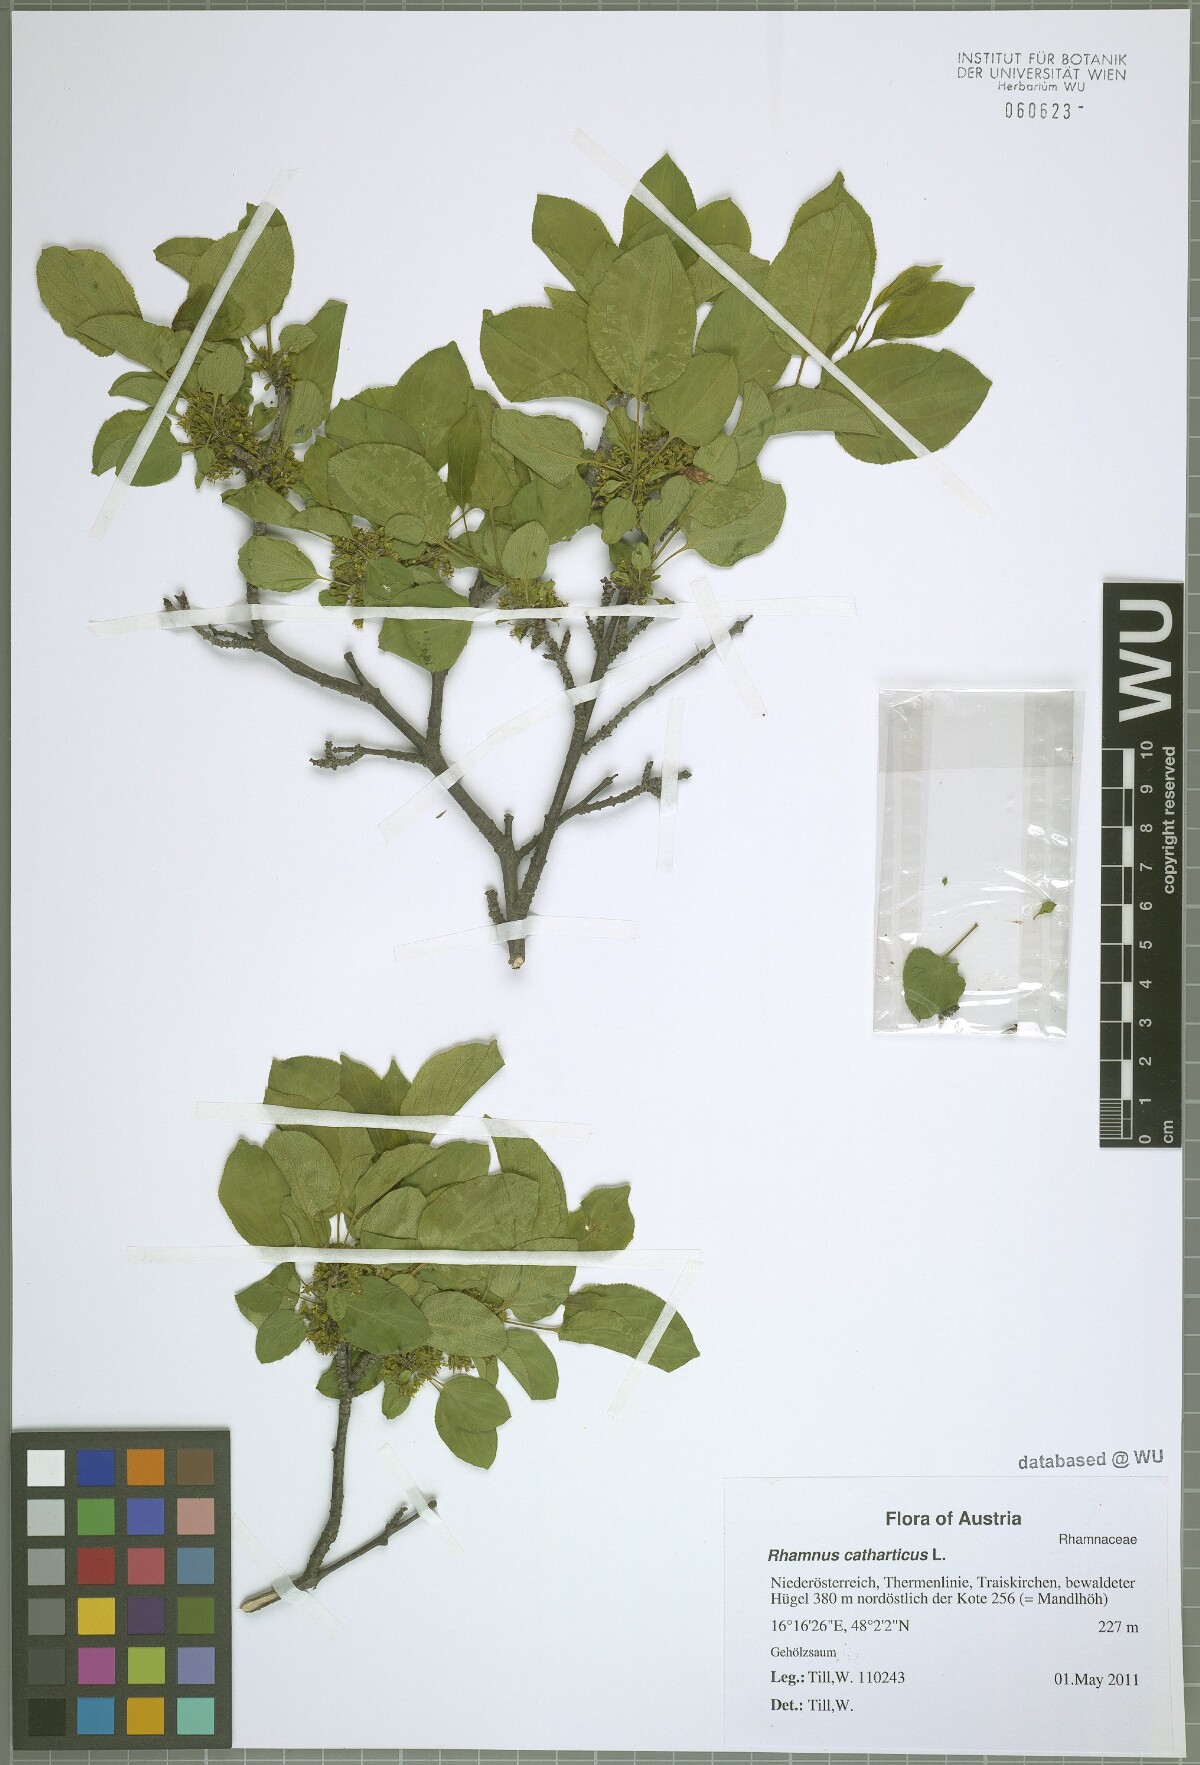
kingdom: Plantae
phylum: Tracheophyta
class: Magnoliopsida
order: Rosales
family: Rhamnaceae
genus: Rhamnus
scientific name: Rhamnus cathartica
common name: Common buckthorn
